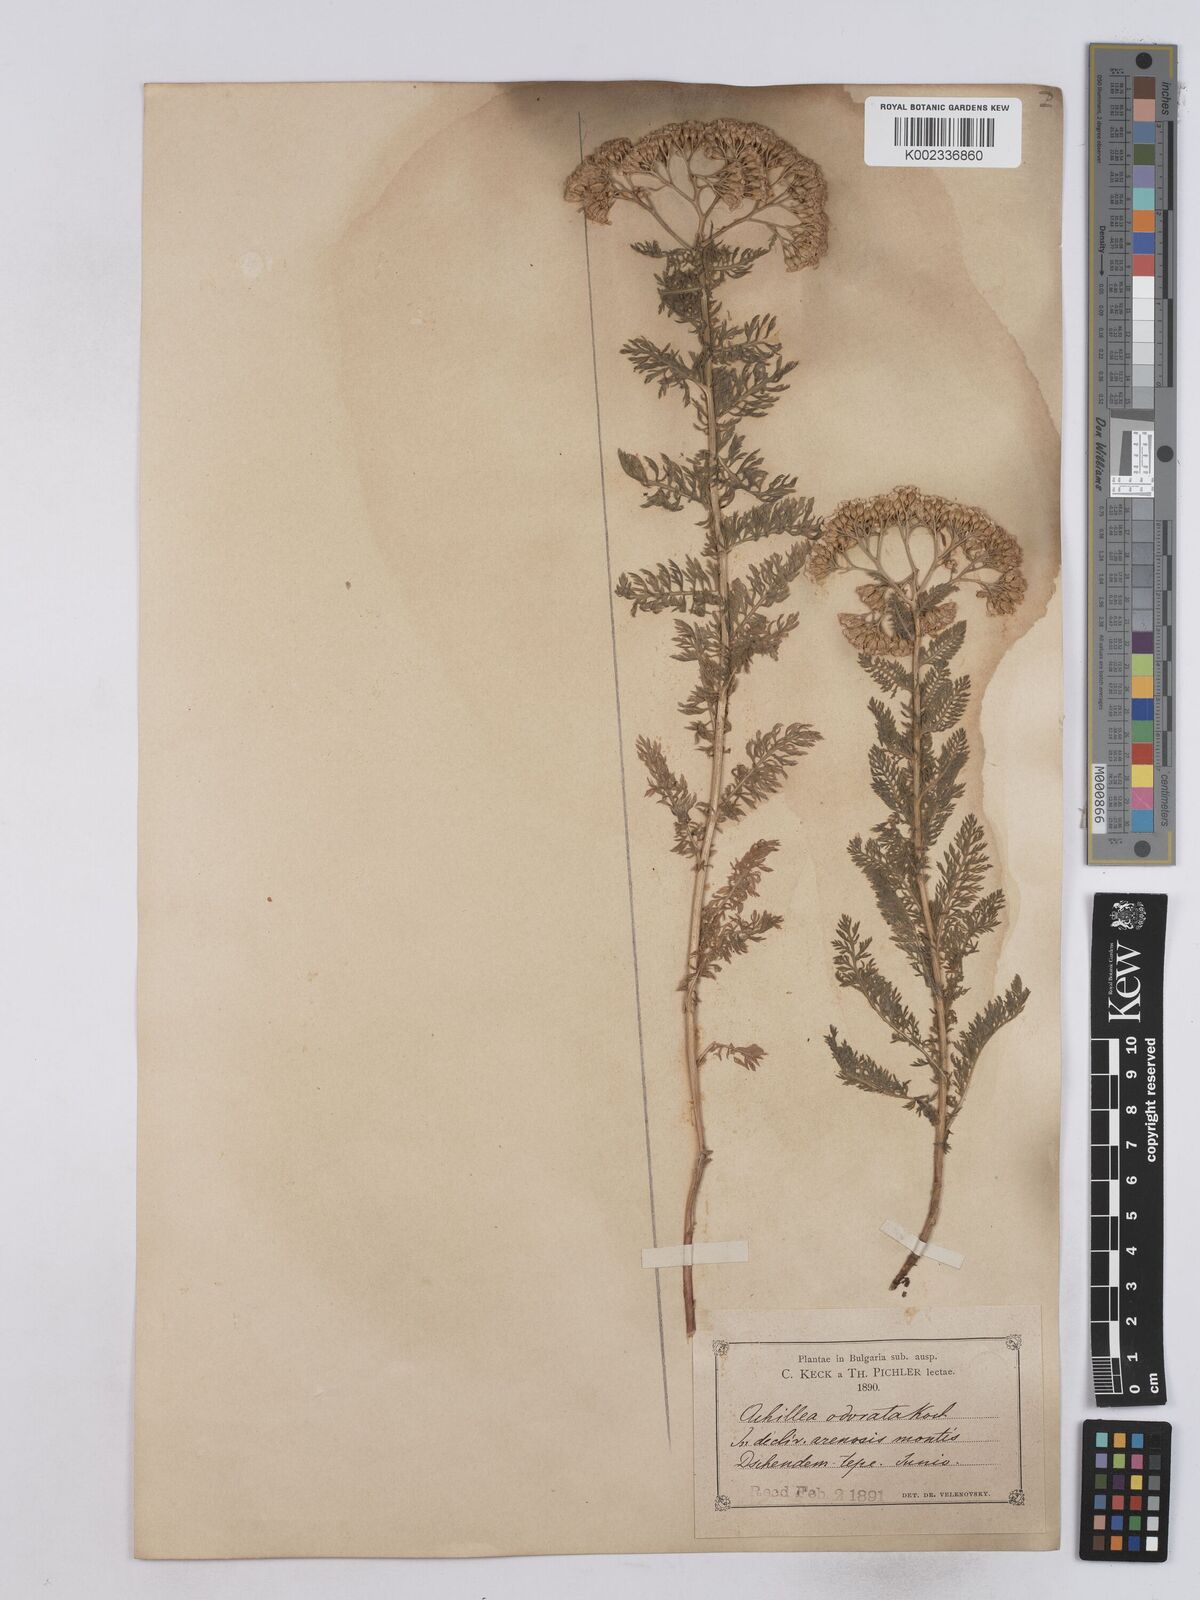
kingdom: Plantae
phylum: Tracheophyta
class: Magnoliopsida
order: Asterales
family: Asteraceae
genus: Achillea
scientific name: Achillea odorata
